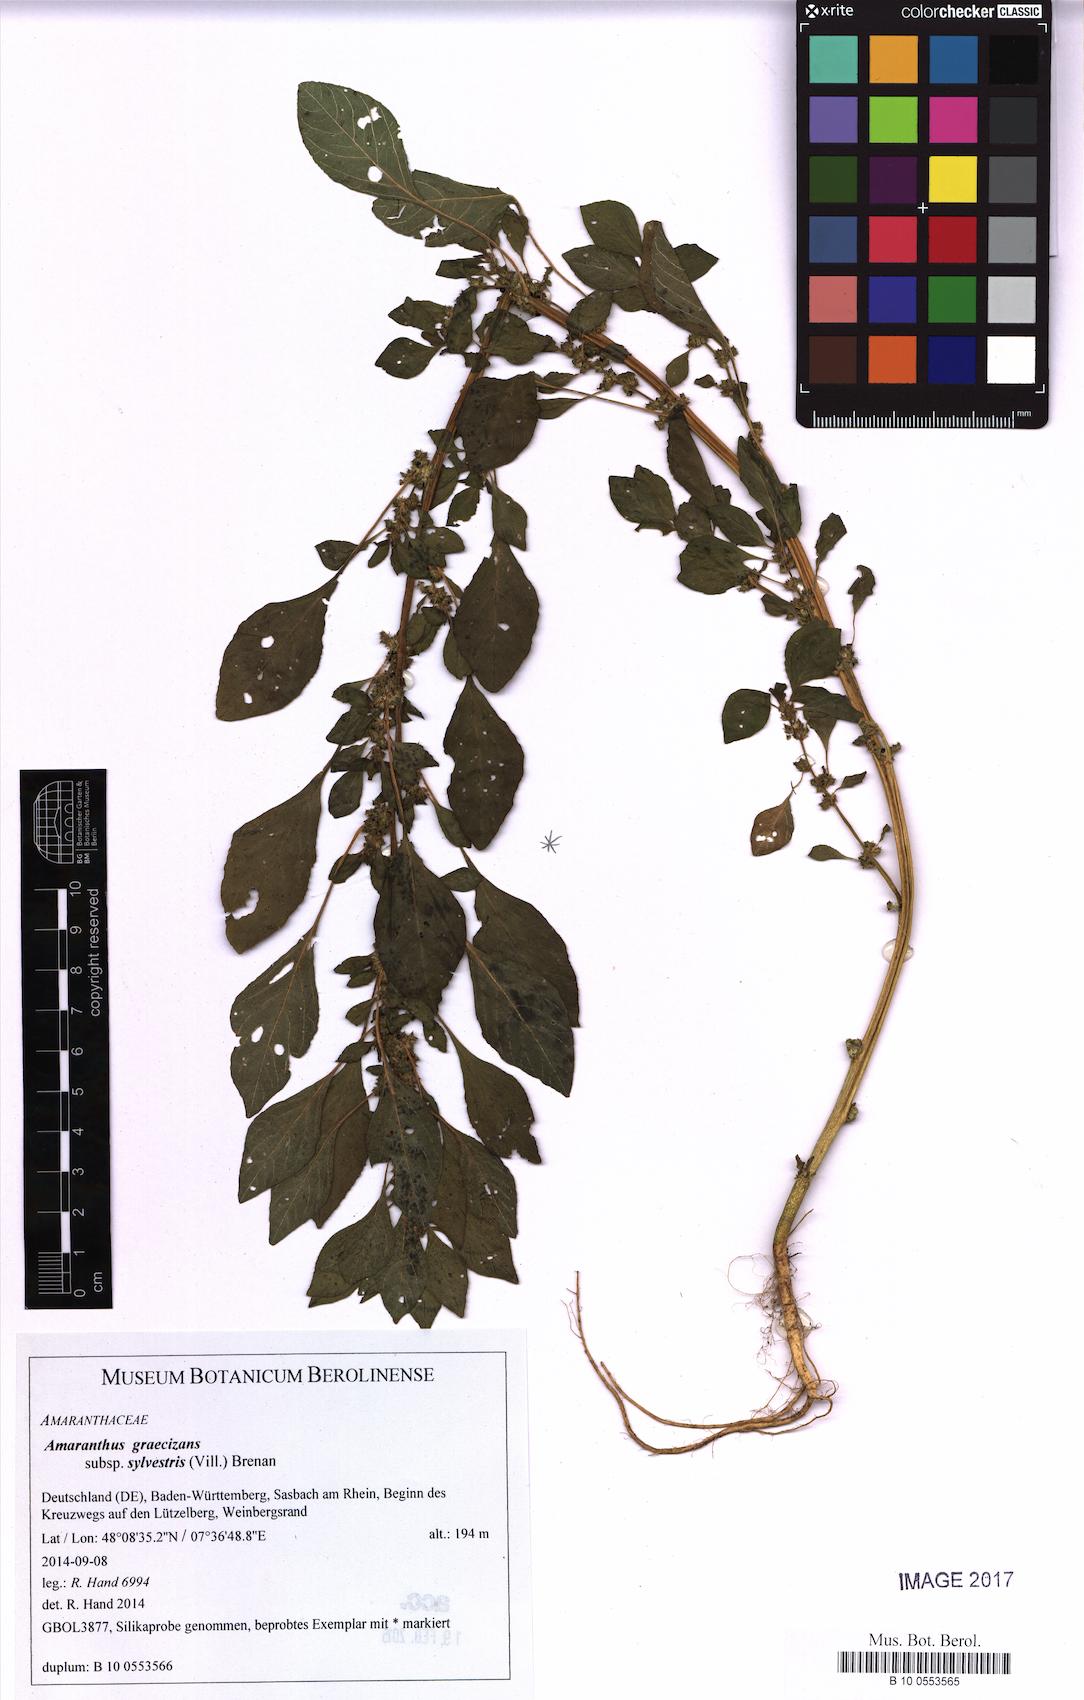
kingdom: Plantae
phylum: Tracheophyta
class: Magnoliopsida
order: Caryophyllales
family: Amaranthaceae
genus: Amaranthus
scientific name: Amaranthus graecizans
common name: Mediterranean amaranth
